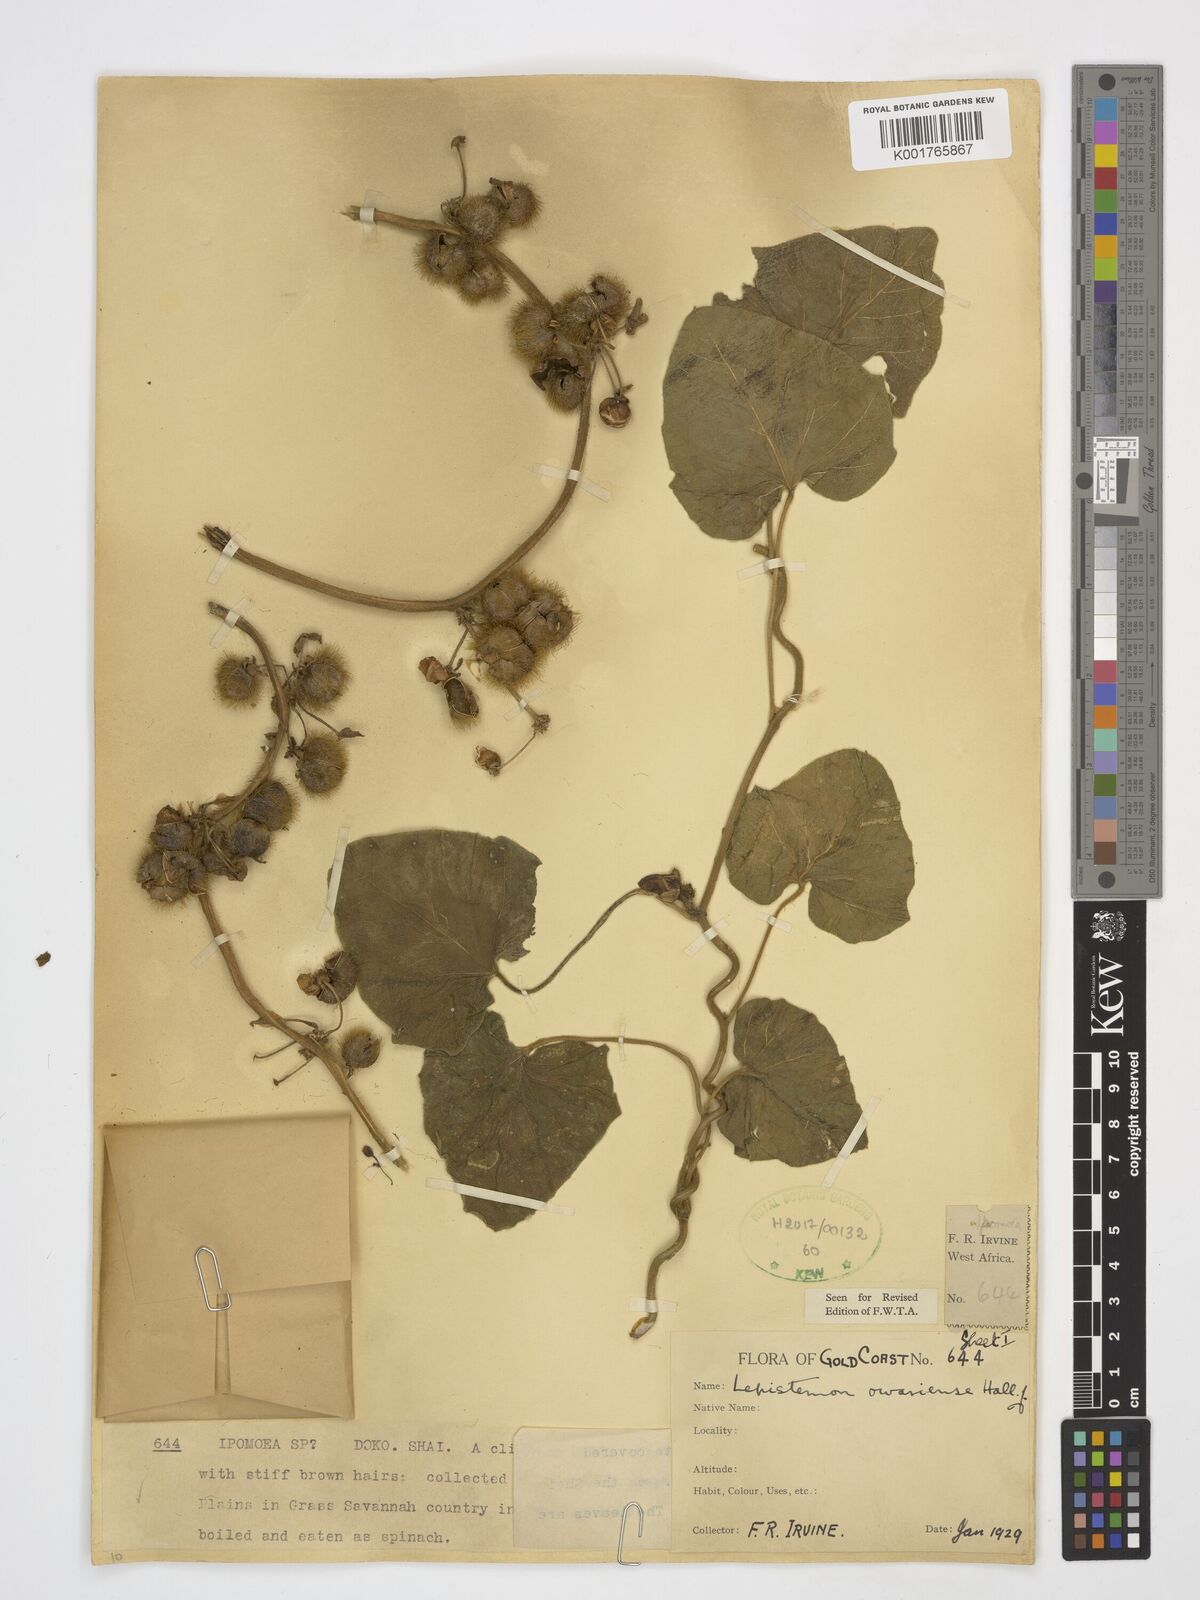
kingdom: Plantae
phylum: Tracheophyta
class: Magnoliopsida
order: Solanales
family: Convolvulaceae
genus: Lepistemon
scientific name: Lepistemon owariensis
